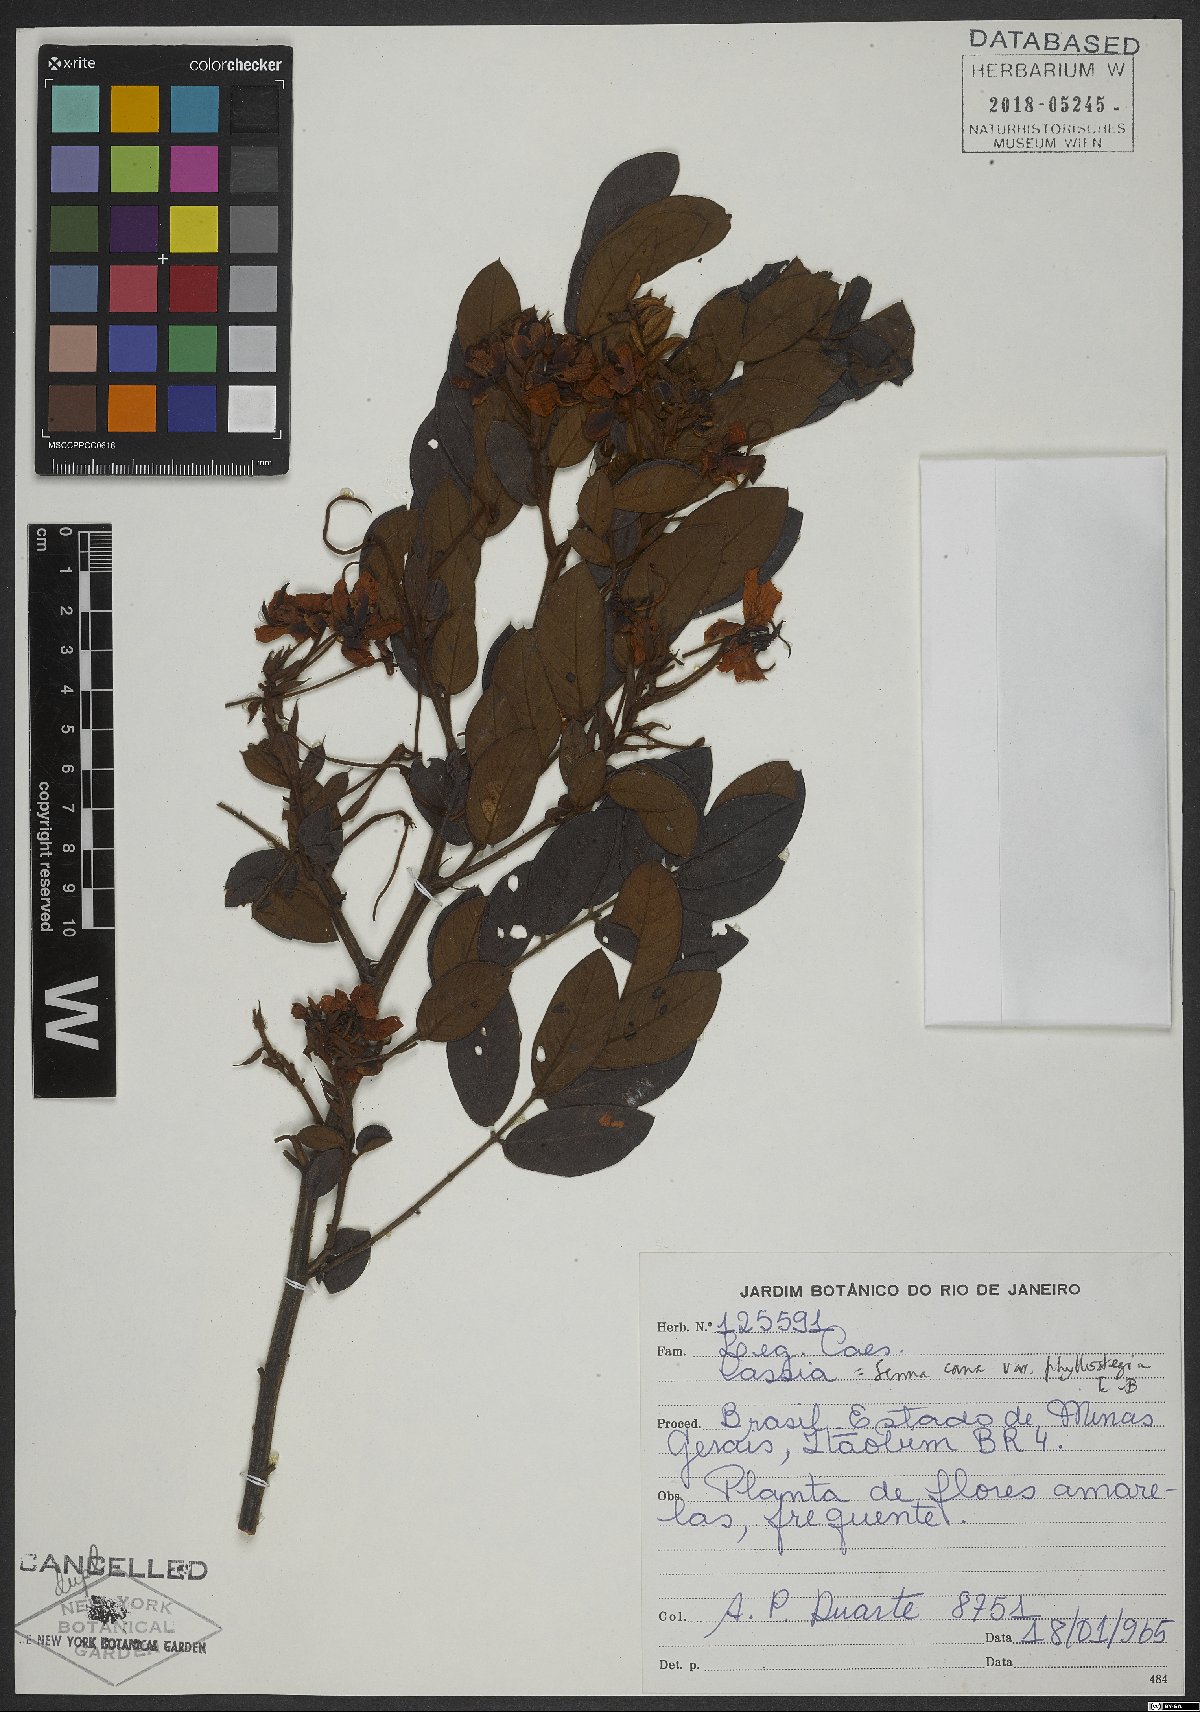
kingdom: Plantae
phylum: Tracheophyta
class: Magnoliopsida
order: Fabales
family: Fabaceae
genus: Senna
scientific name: Senna cana
